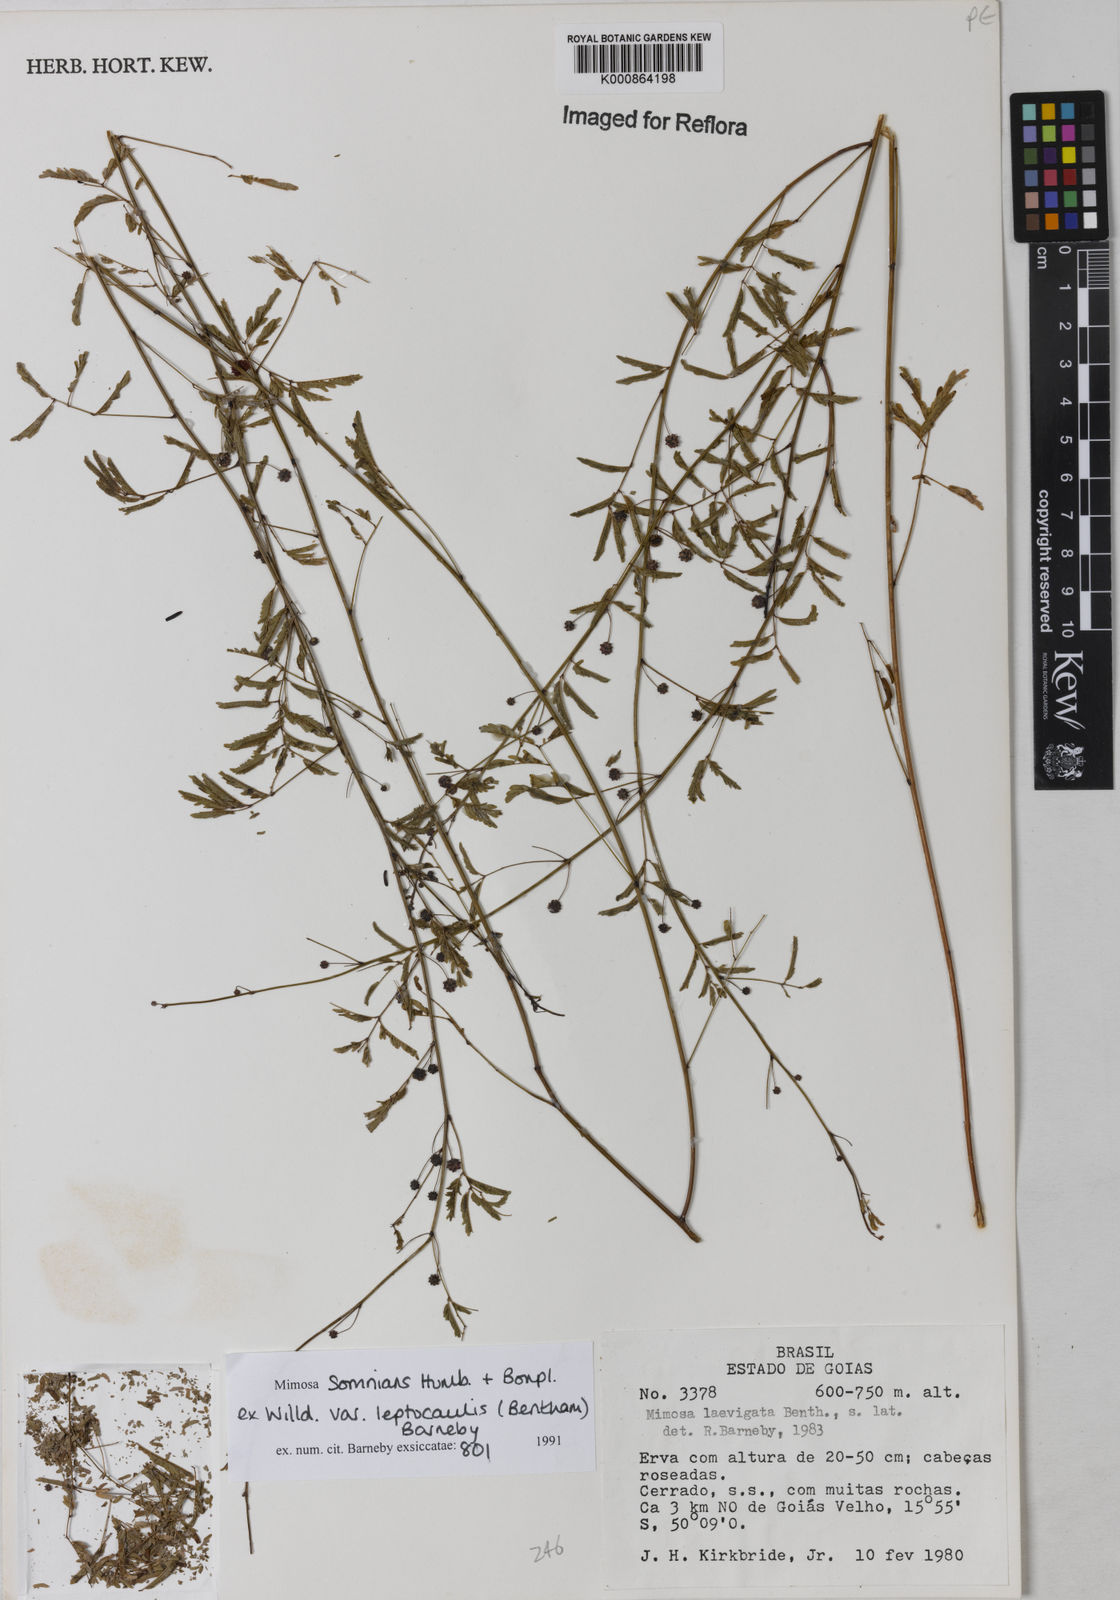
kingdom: Plantae
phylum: Tracheophyta
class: Magnoliopsida
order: Fabales
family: Fabaceae
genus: Mimosa
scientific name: Mimosa somnians
